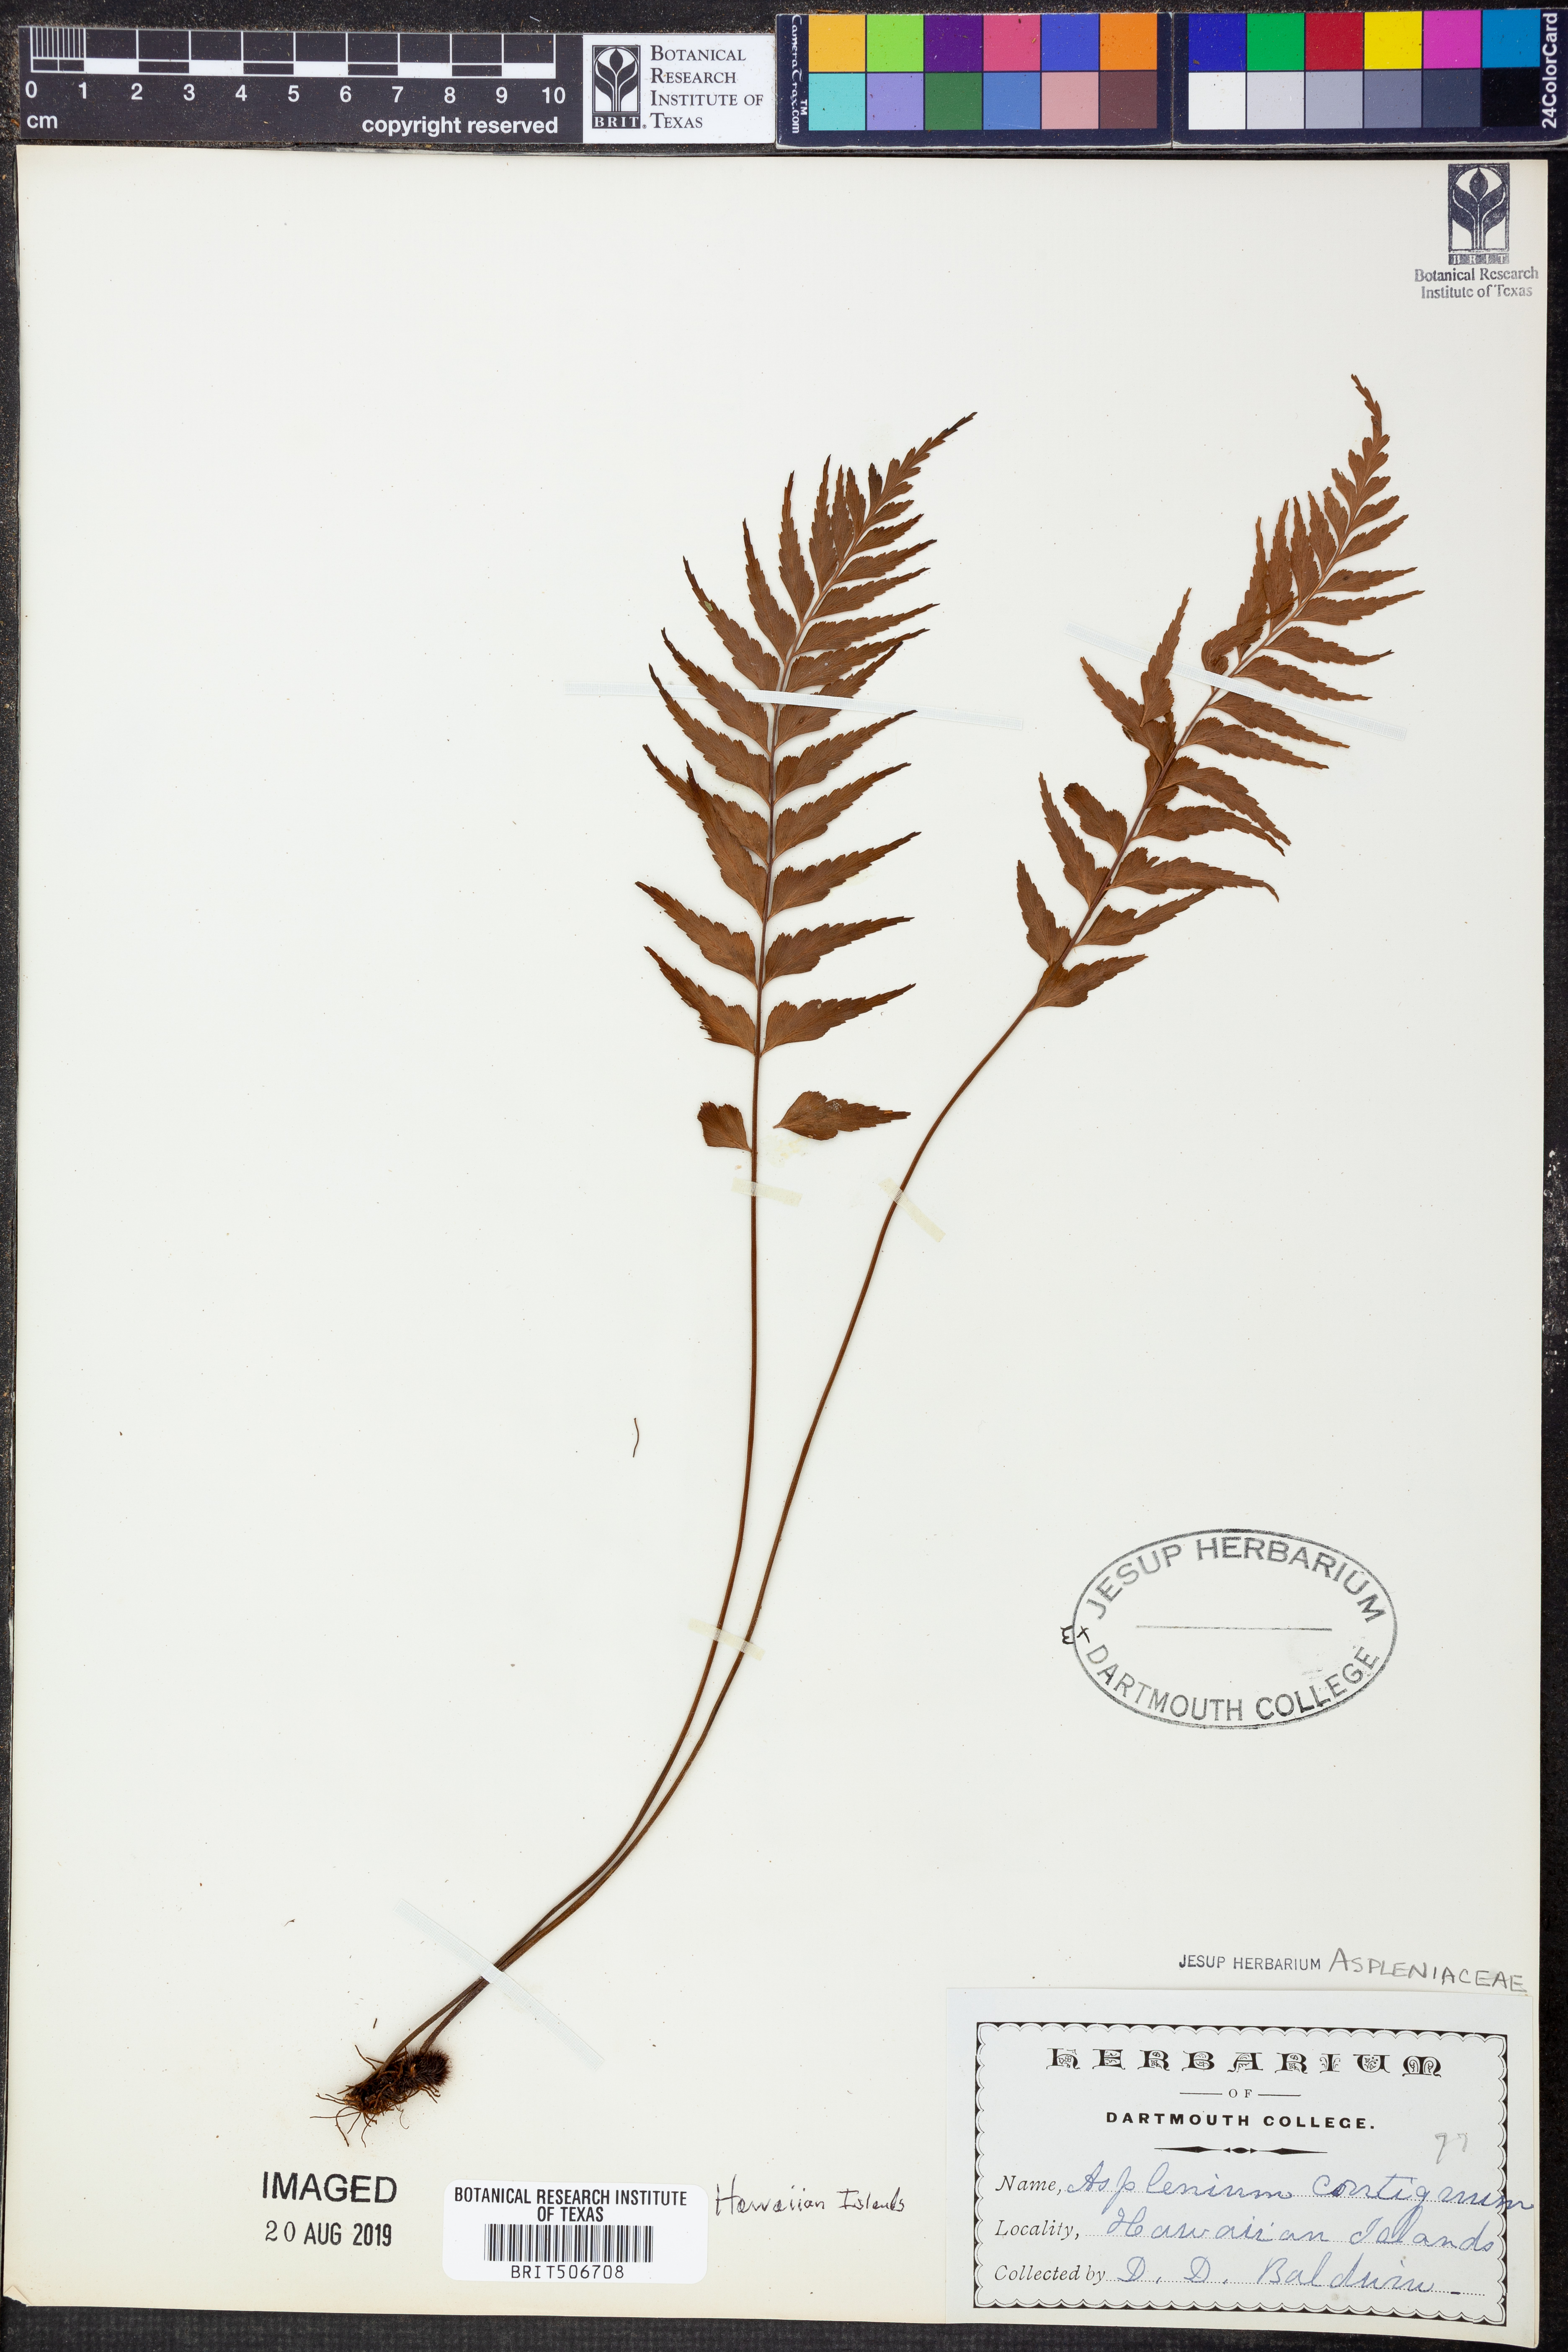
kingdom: Plantae
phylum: Tracheophyta
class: Polypodiopsida
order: Polypodiales
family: Aspleniaceae
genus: Asplenium
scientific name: Asplenium contiguum
